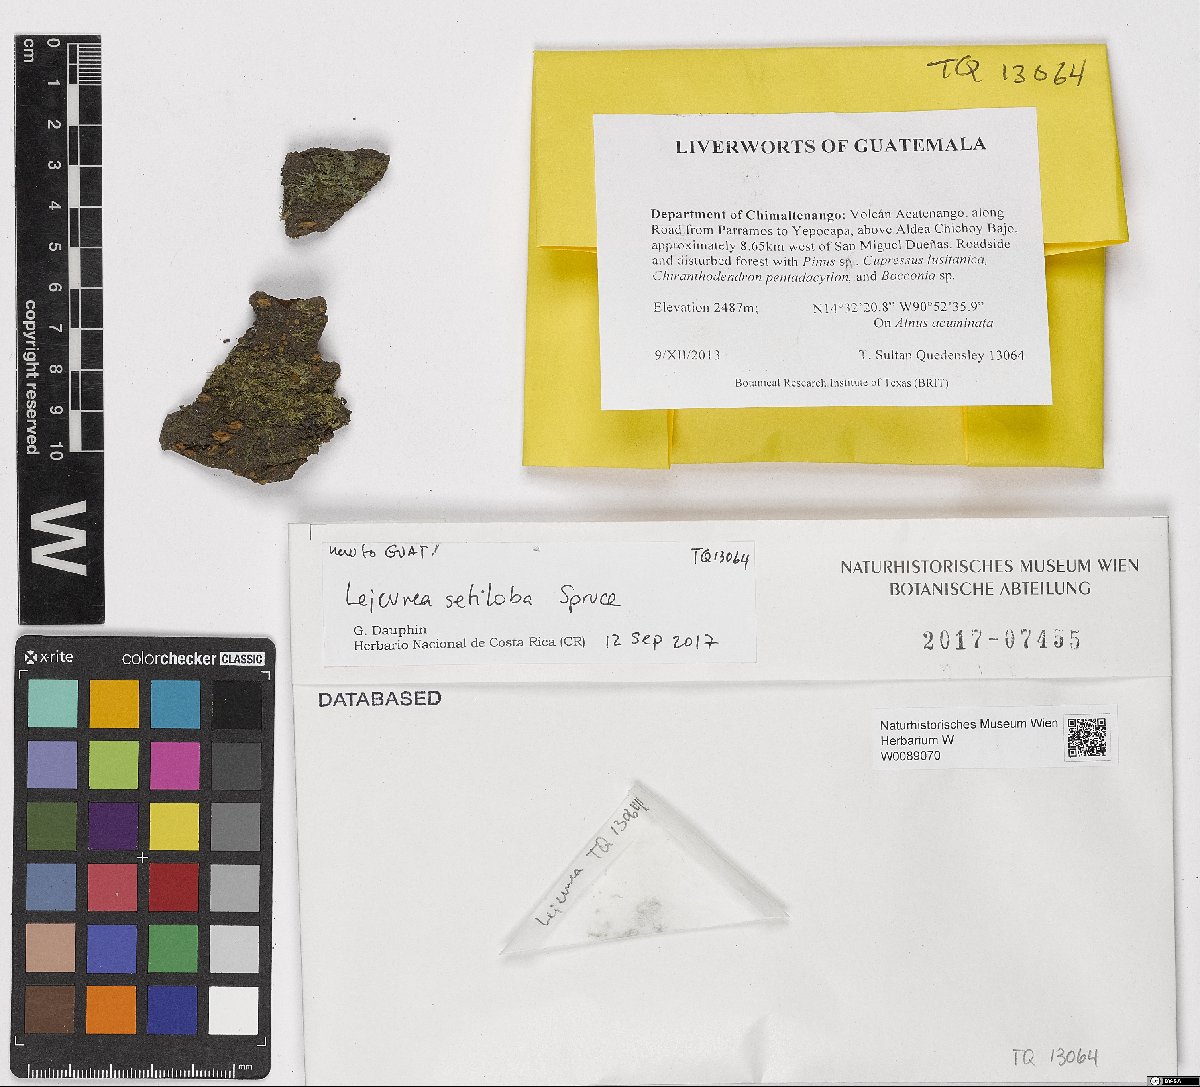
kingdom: Plantae
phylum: Marchantiophyta
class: Jungermanniopsida
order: Porellales
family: Lejeuneaceae
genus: Lejeunea
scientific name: Lejeunea setiloba
